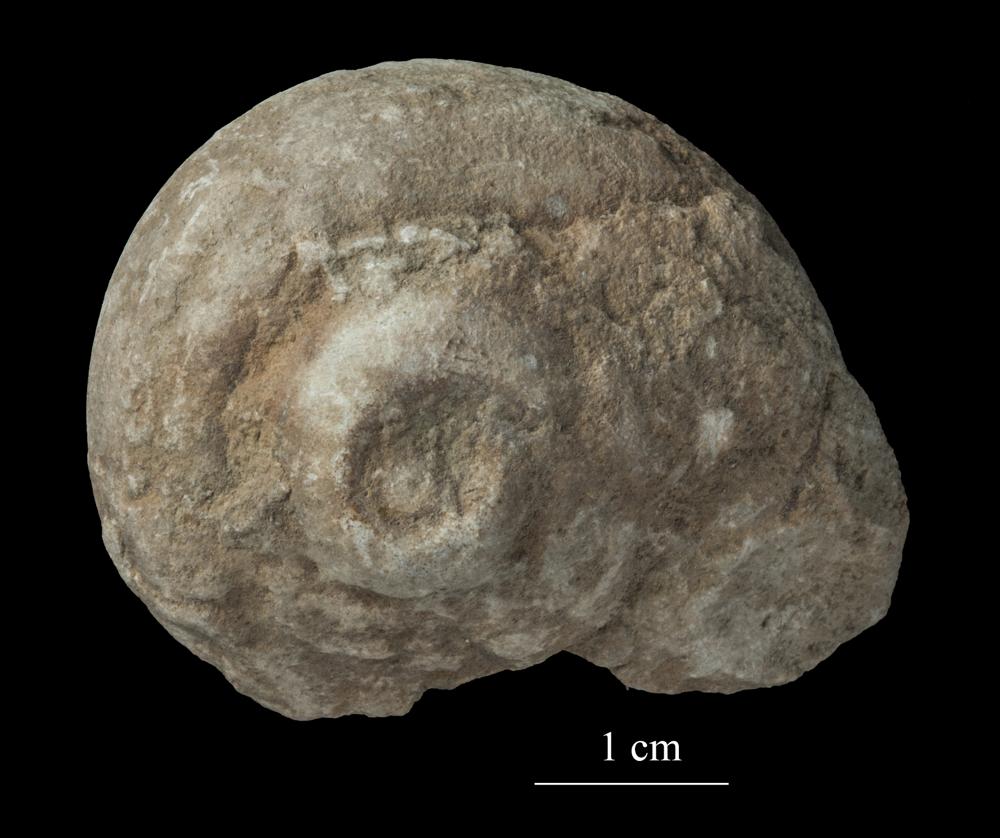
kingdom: Animalia
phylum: Mollusca
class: Gastropoda
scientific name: Gastropoda
